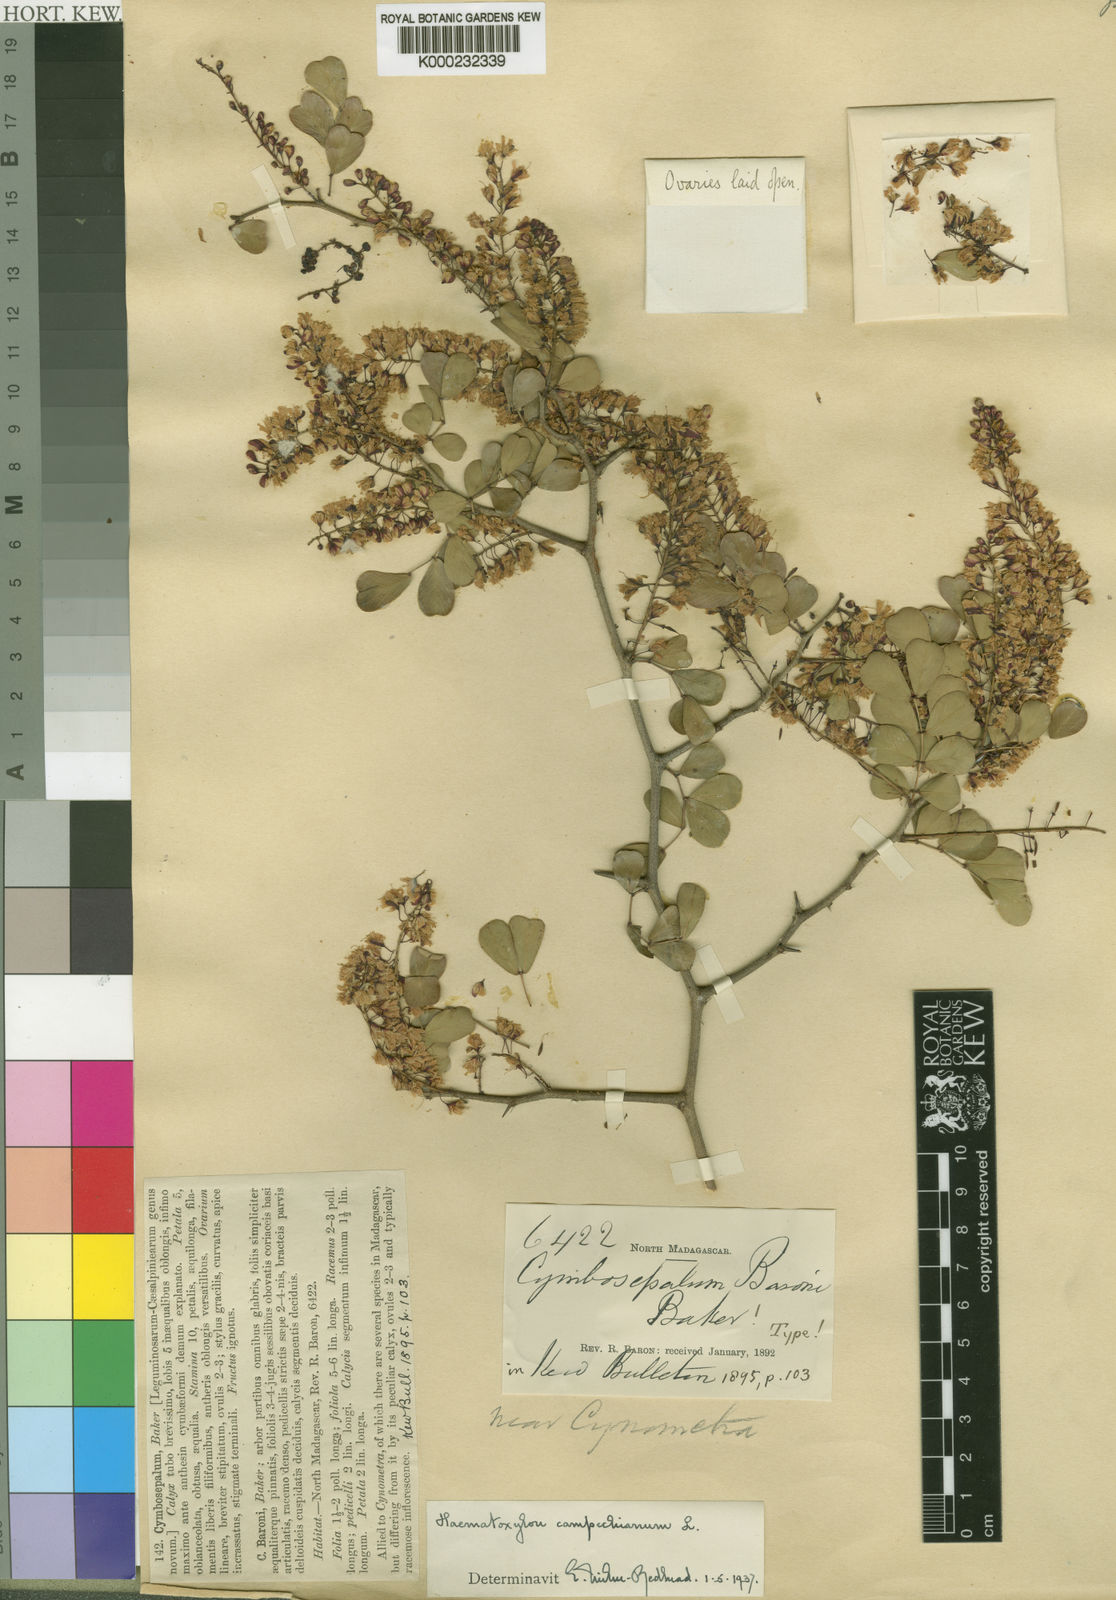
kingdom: Plantae
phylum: Tracheophyta
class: Magnoliopsida
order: Fabales
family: Fabaceae
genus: Haematoxylum
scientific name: Haematoxylum
